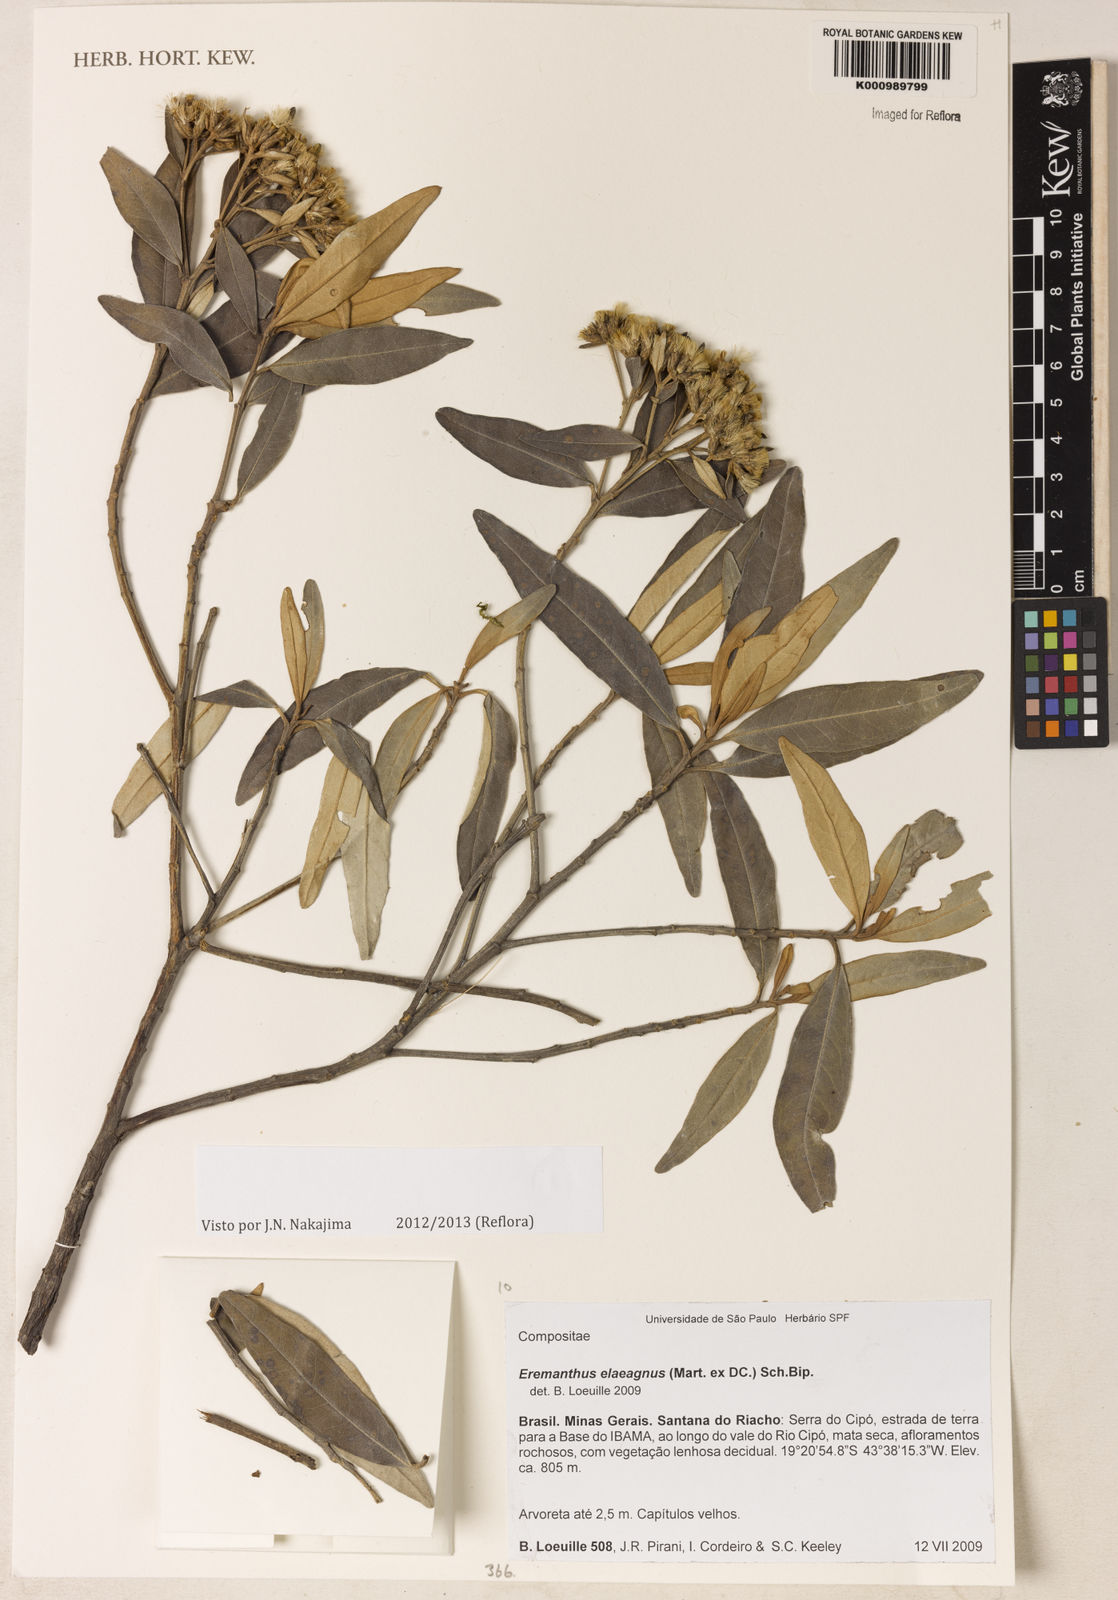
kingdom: Plantae
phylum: Tracheophyta
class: Magnoliopsida
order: Asterales
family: Asteraceae
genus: Eremanthus
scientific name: Eremanthus elaeagnus
